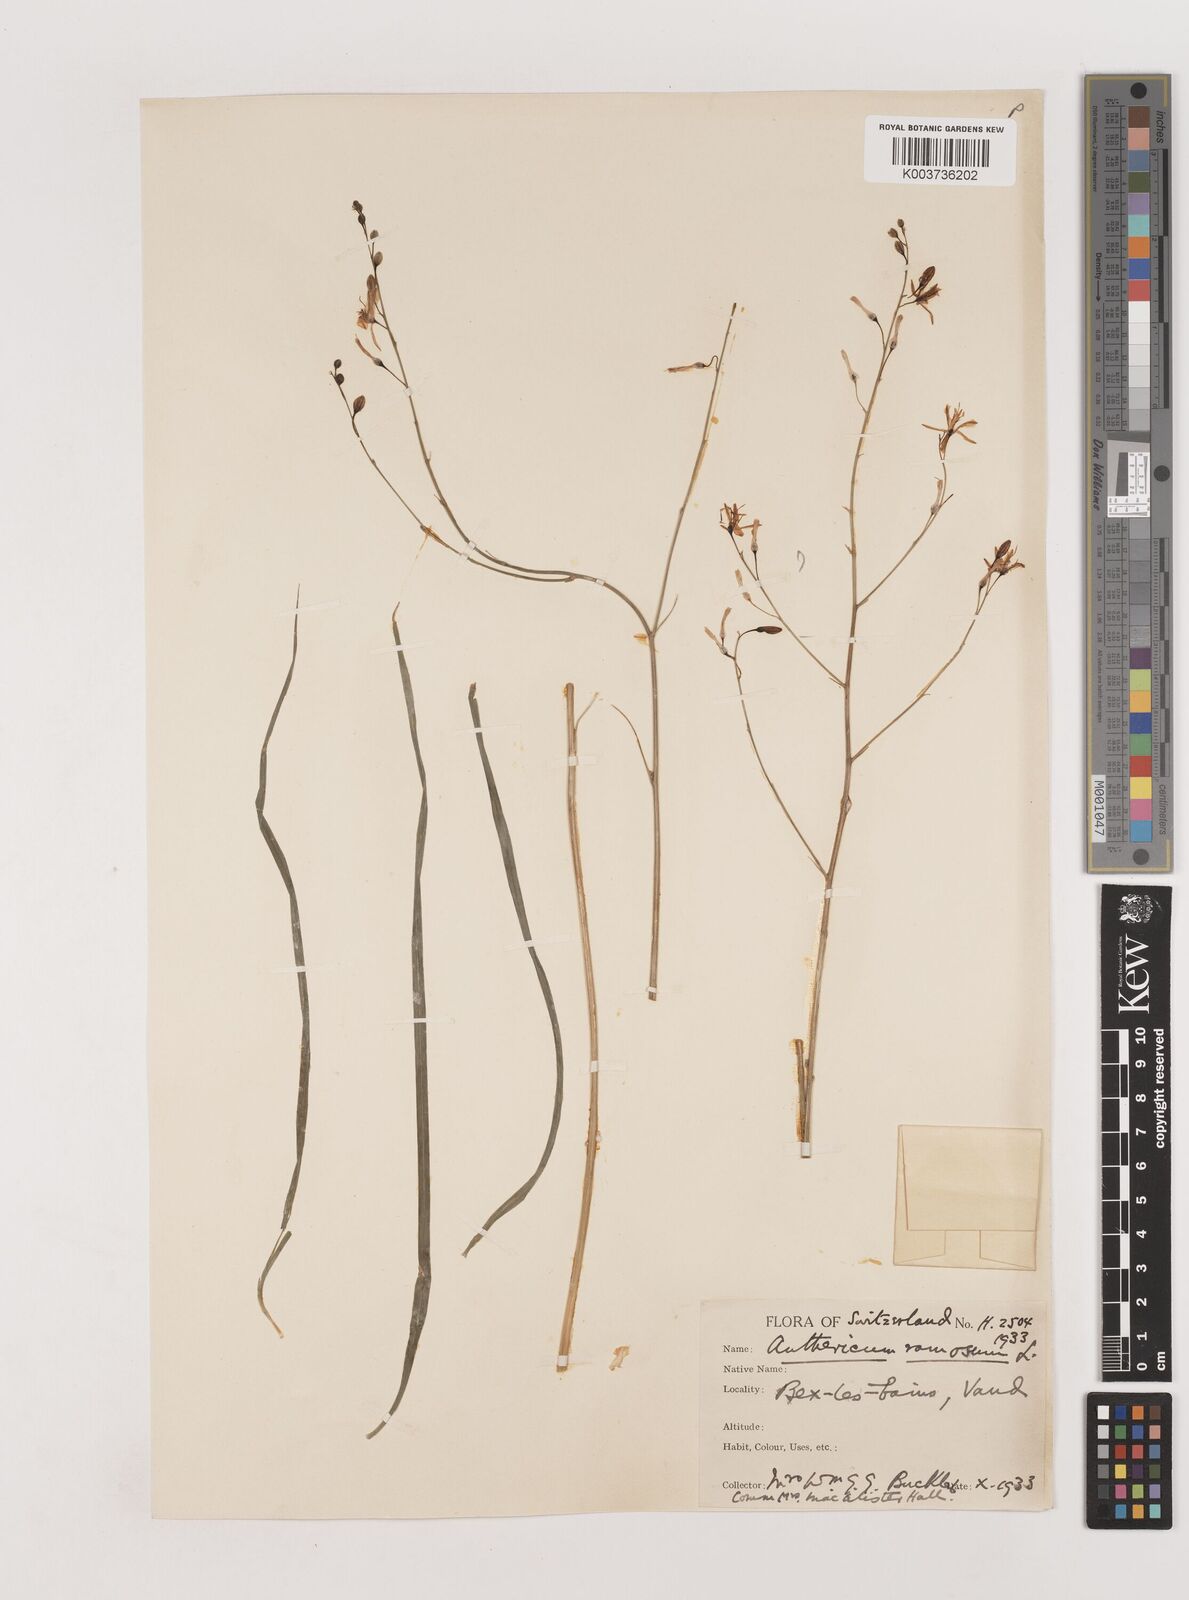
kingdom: Plantae
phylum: Tracheophyta
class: Liliopsida
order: Asparagales
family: Asparagaceae
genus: Anthericum
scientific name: Anthericum ramosum
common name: Branched st. bernard's-lily
